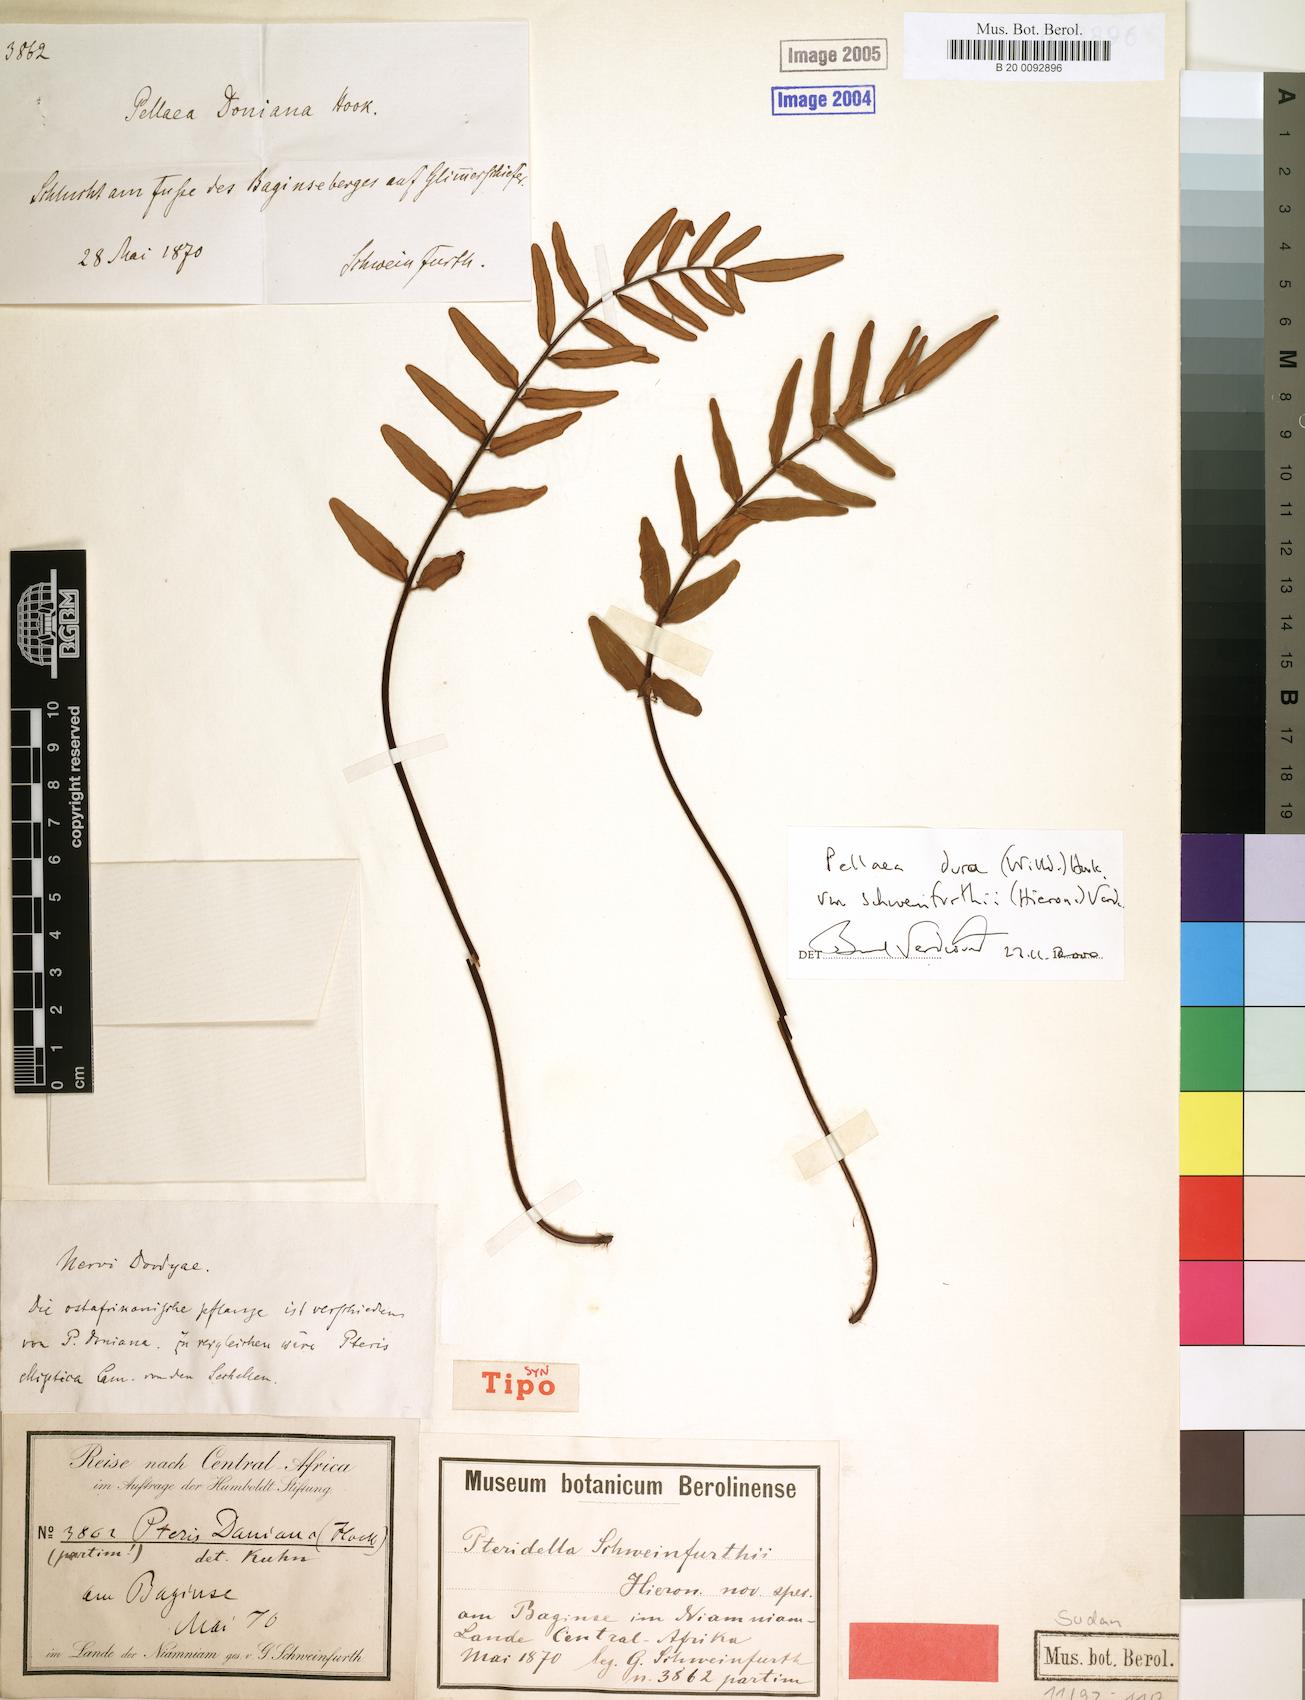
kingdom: Plantae
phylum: Tracheophyta
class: Polypodiopsida
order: Polypodiales
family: Pteridaceae
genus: Pellaea
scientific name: Pellaea dura
